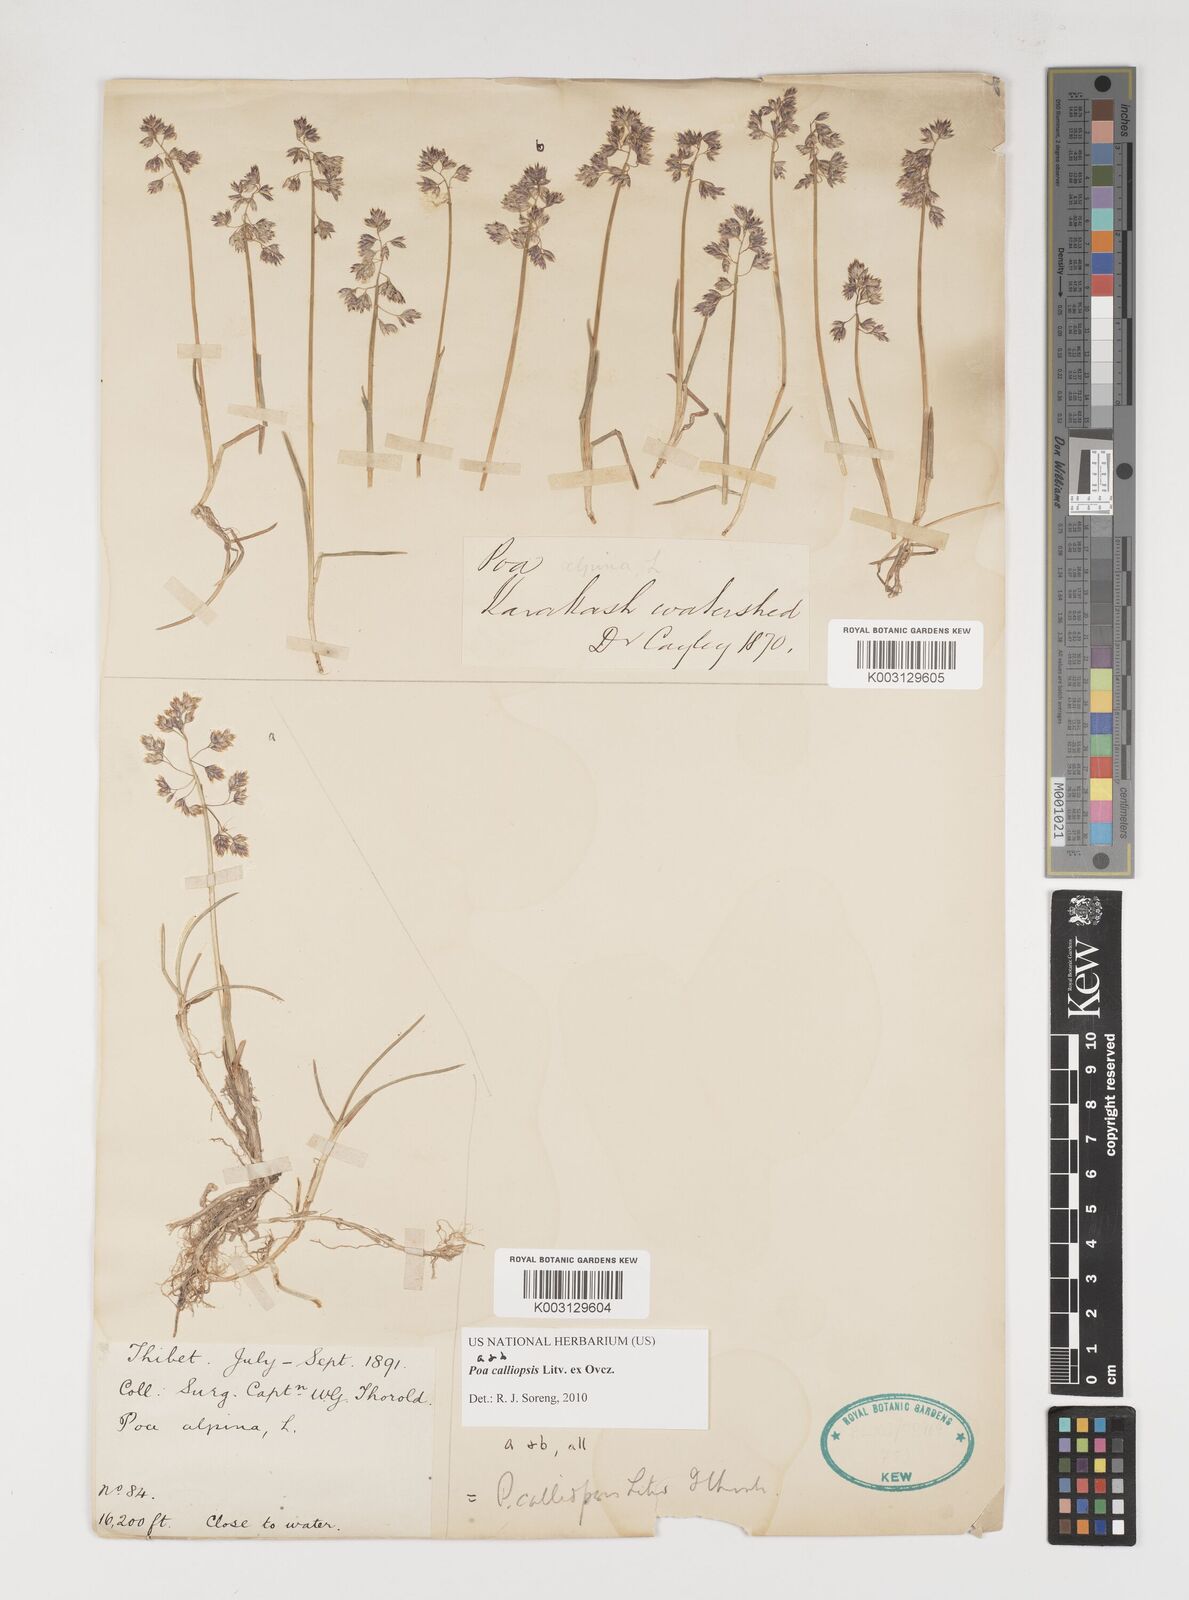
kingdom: Plantae
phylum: Tracheophyta
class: Liliopsida
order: Poales
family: Poaceae
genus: Poa
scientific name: Poa calliopsis
